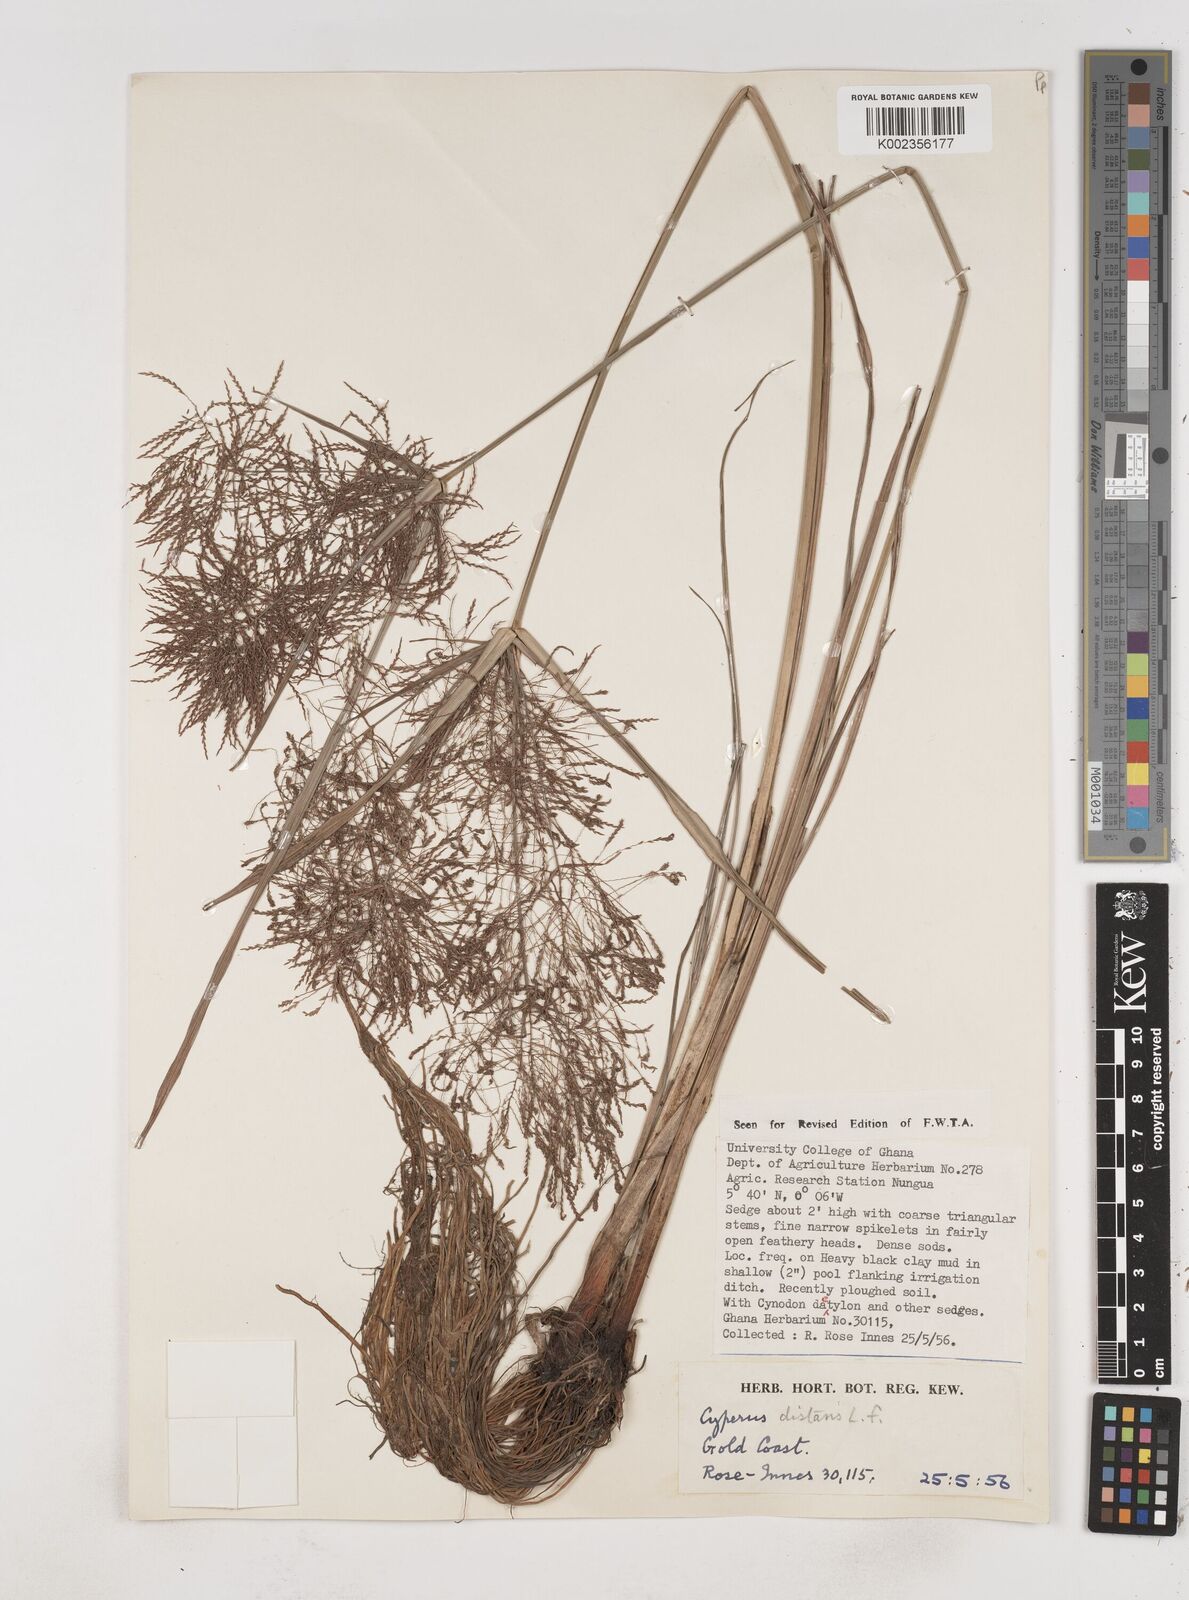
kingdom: Plantae
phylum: Tracheophyta
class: Liliopsida
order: Poales
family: Cyperaceae
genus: Cyperus
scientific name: Cyperus distans
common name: Slender cyperus
